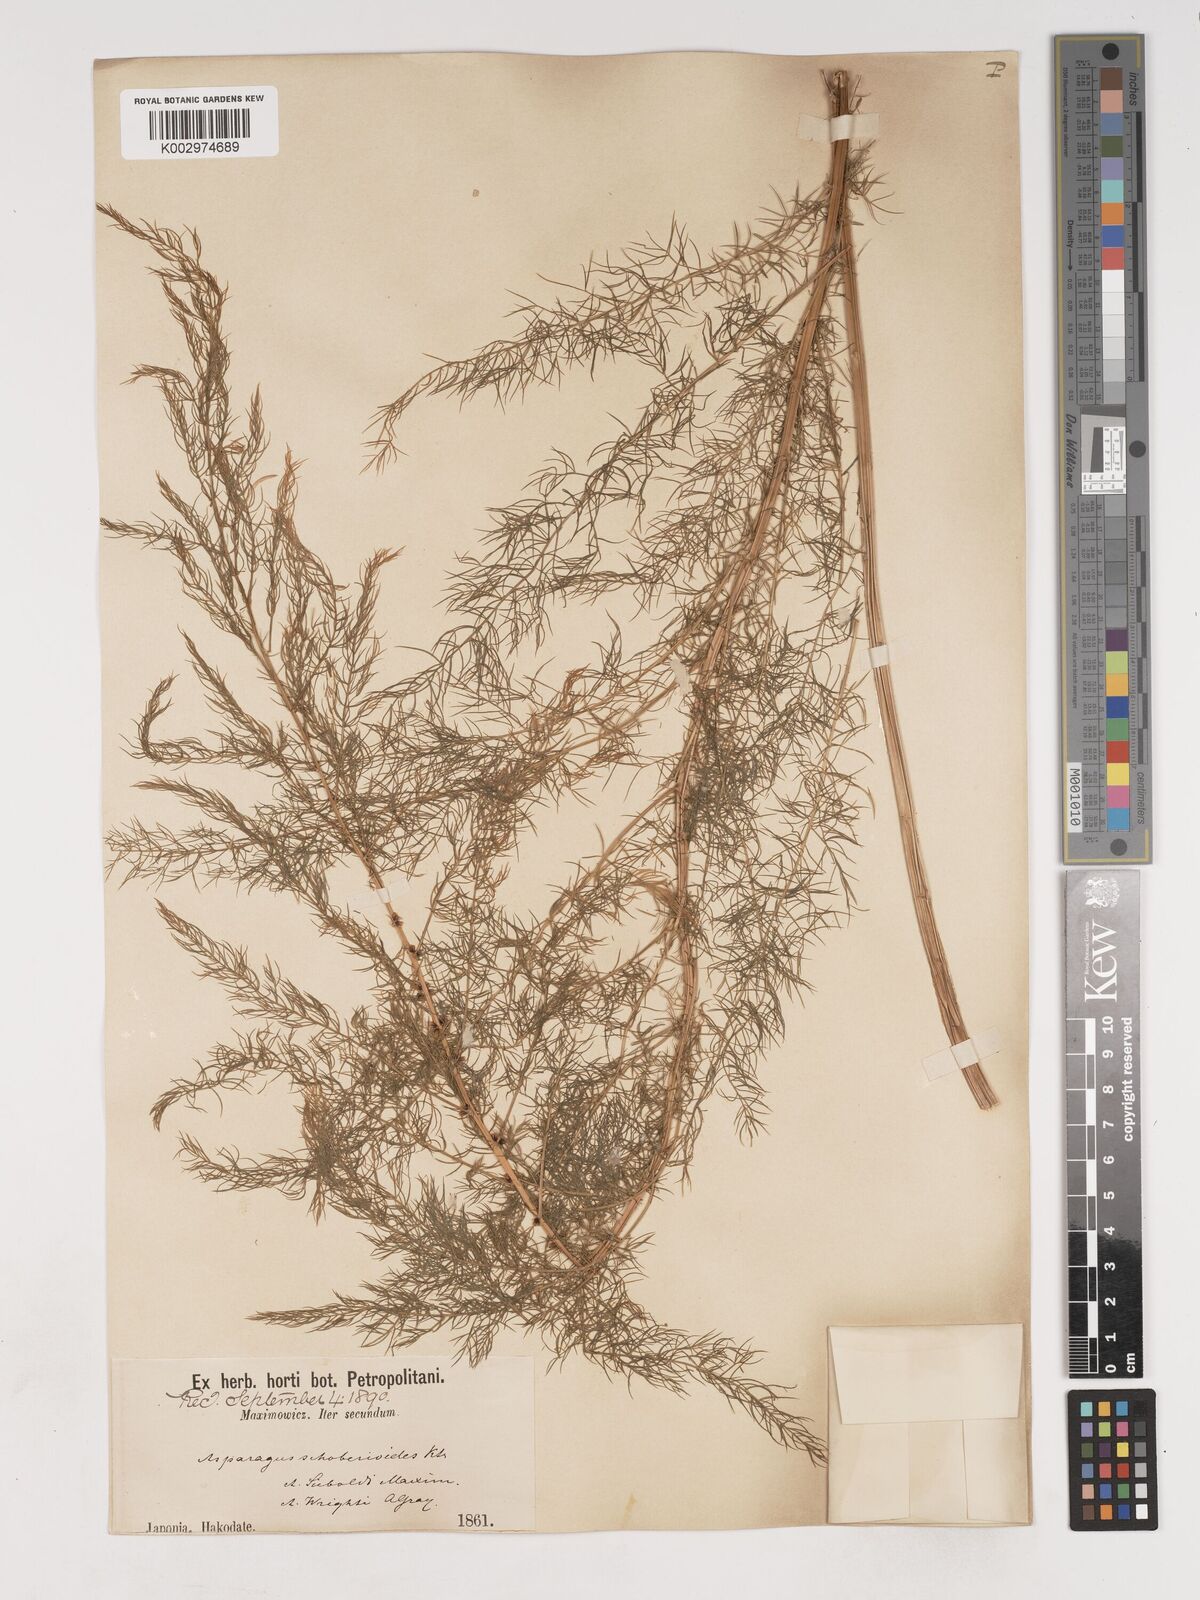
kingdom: Plantae
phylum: Tracheophyta
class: Liliopsida
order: Asparagales
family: Asparagaceae
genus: Asparagus
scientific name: Asparagus schoberioides
